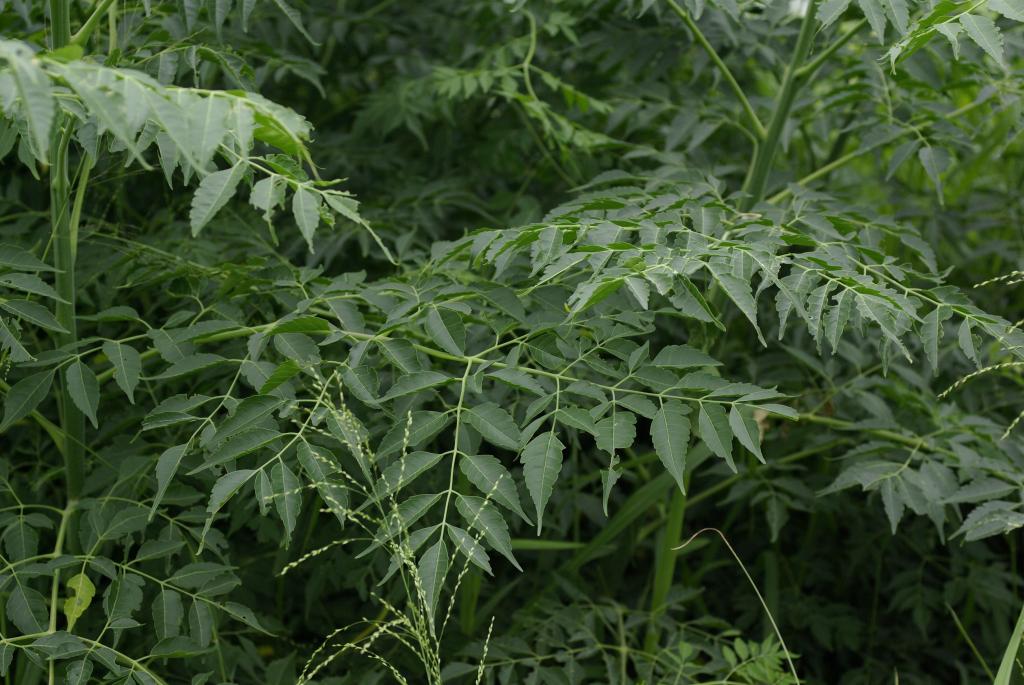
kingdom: Plantae
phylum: Tracheophyta
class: Magnoliopsida
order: Sapindales
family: Meliaceae
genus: Melia
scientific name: Melia azedarach
